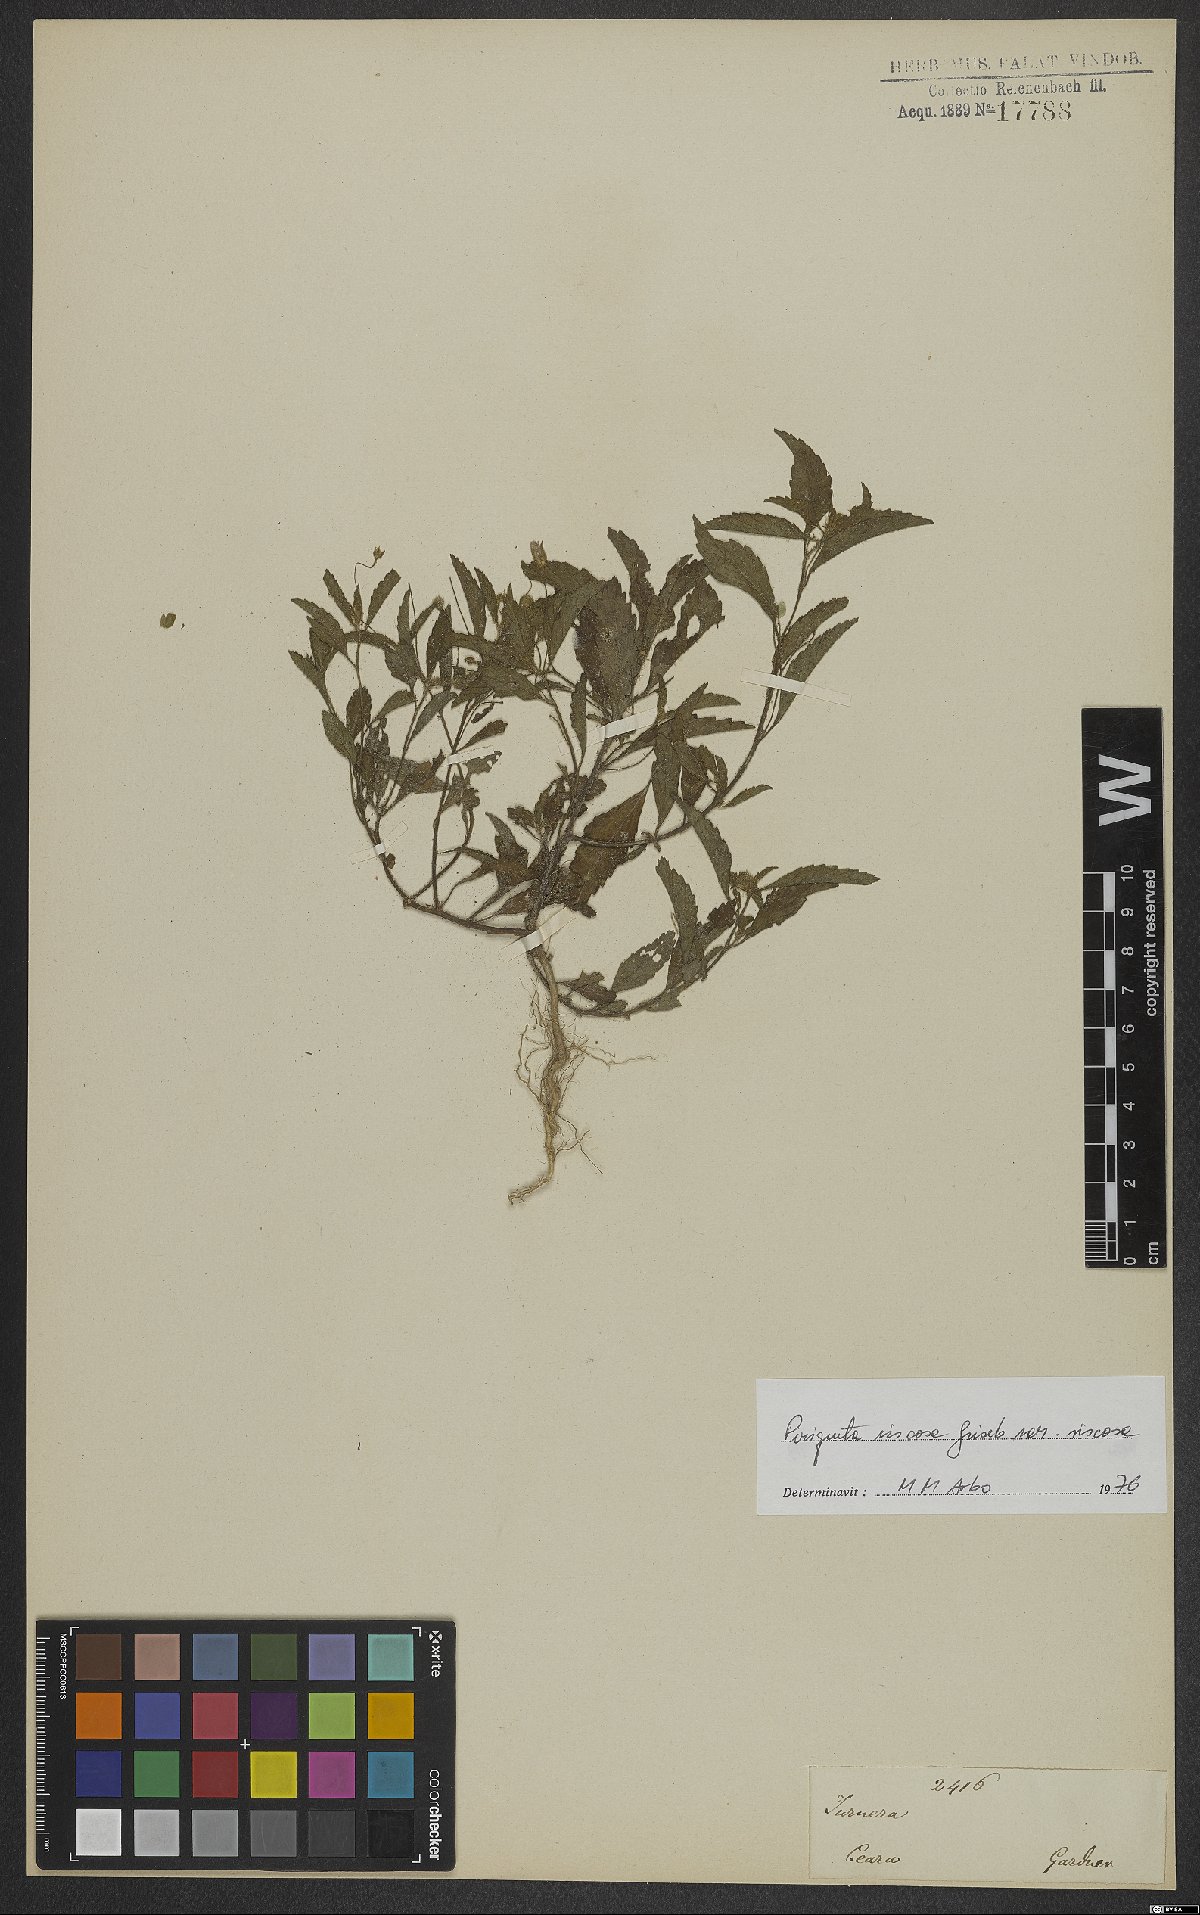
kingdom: Plantae
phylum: Tracheophyta
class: Magnoliopsida
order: Malpighiales
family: Turneraceae
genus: Piriqueta
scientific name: Piriqueta viscosa
